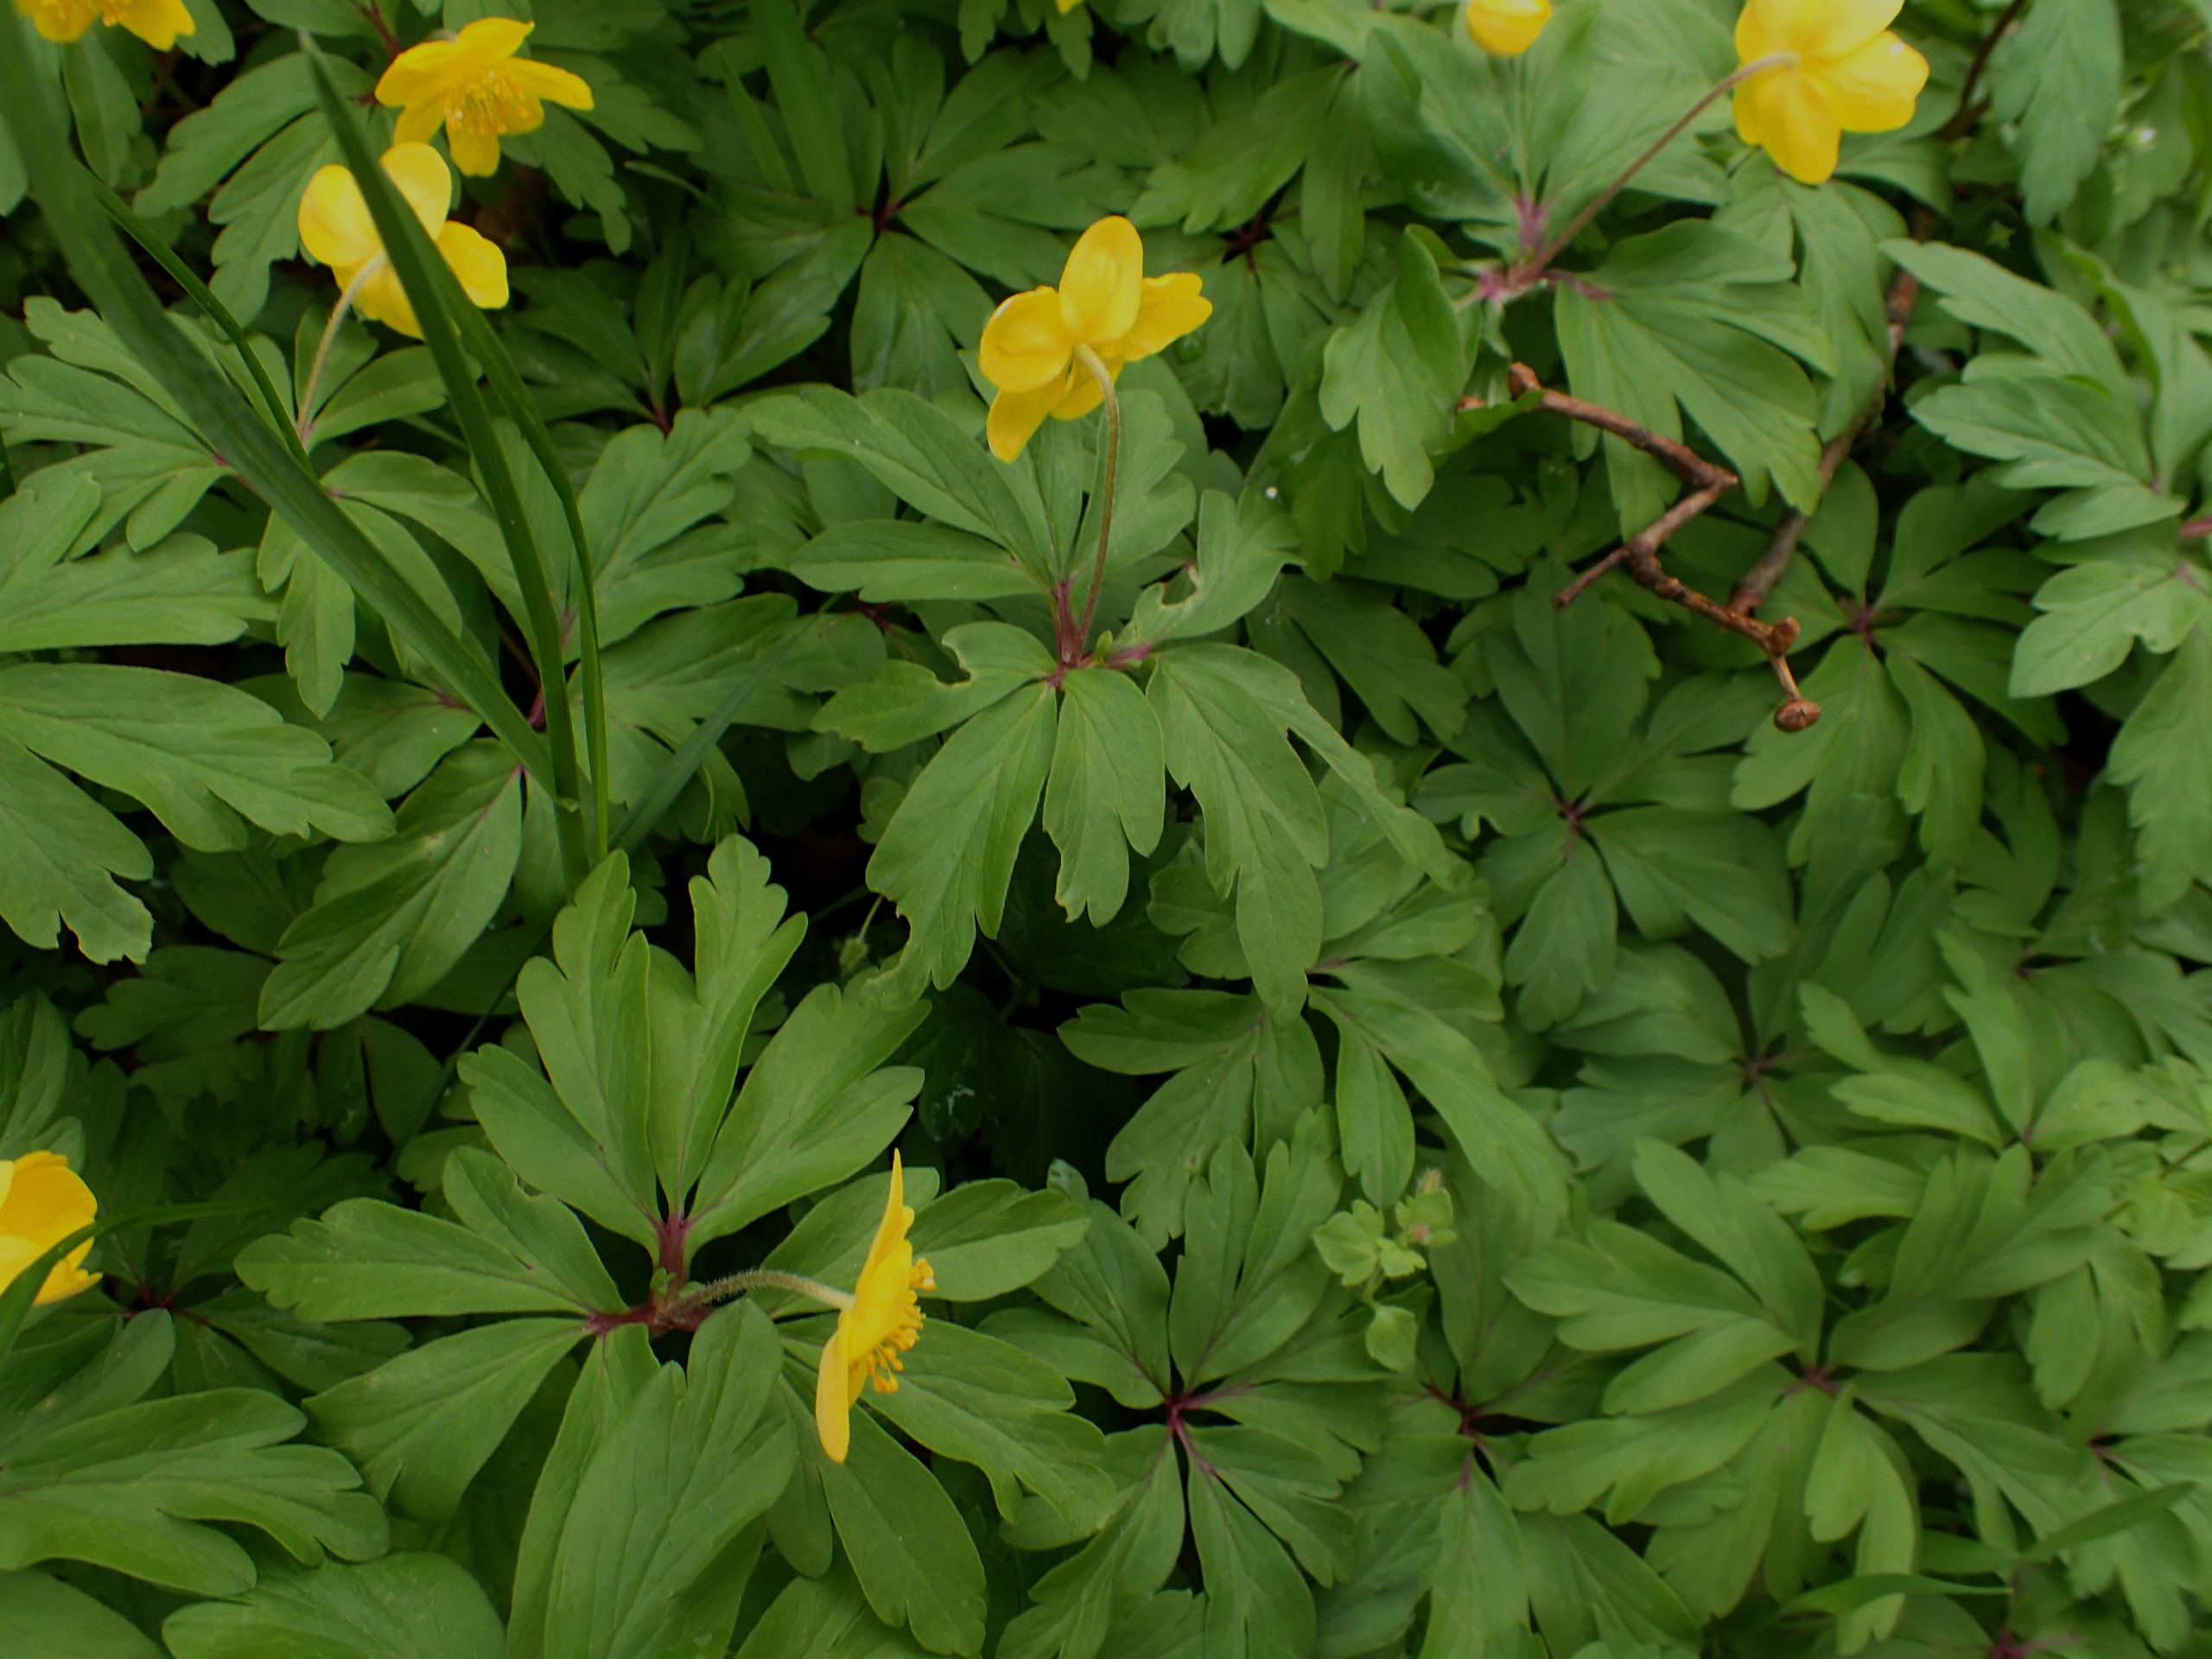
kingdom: Plantae
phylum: Tracheophyta
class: Magnoliopsida
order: Ranunculales
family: Ranunculaceae
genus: Anemone
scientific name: Anemone ranunculoides
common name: Gul anemone
